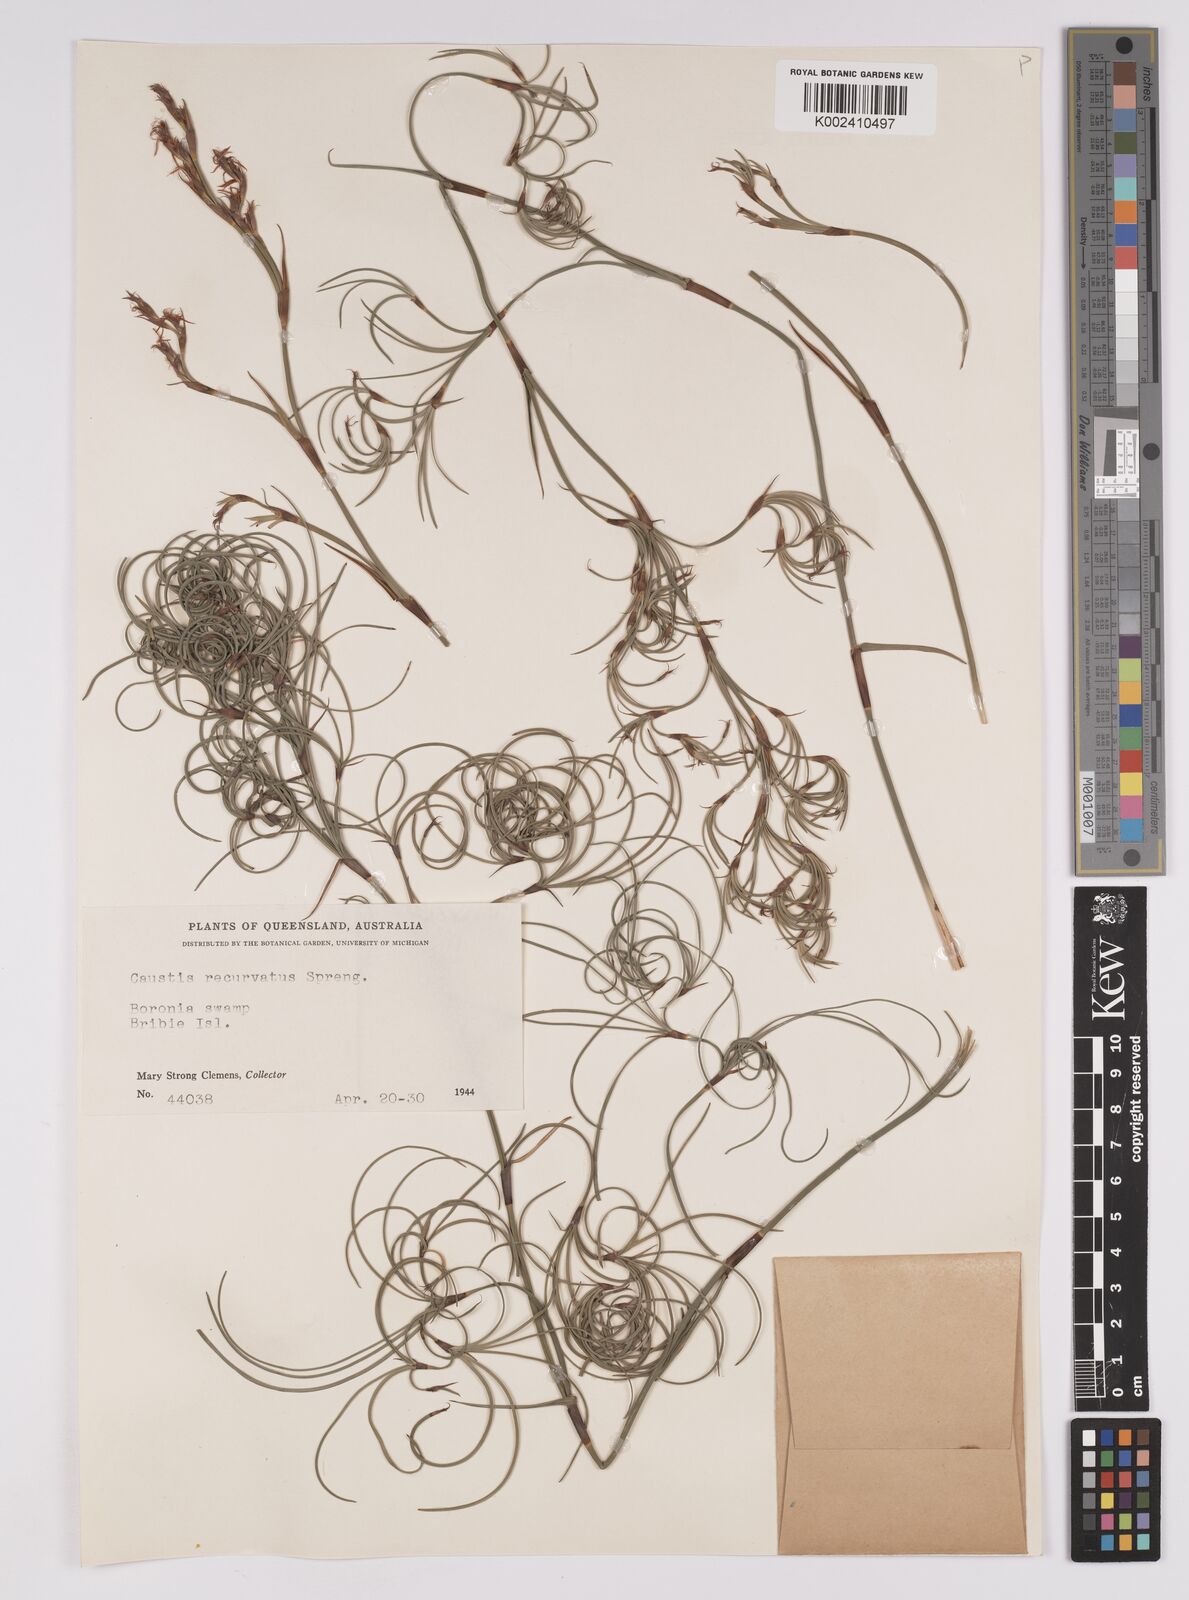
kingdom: Plantae
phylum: Tracheophyta
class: Liliopsida
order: Poales
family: Cyperaceae
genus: Caustis
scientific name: Caustis recurvata
